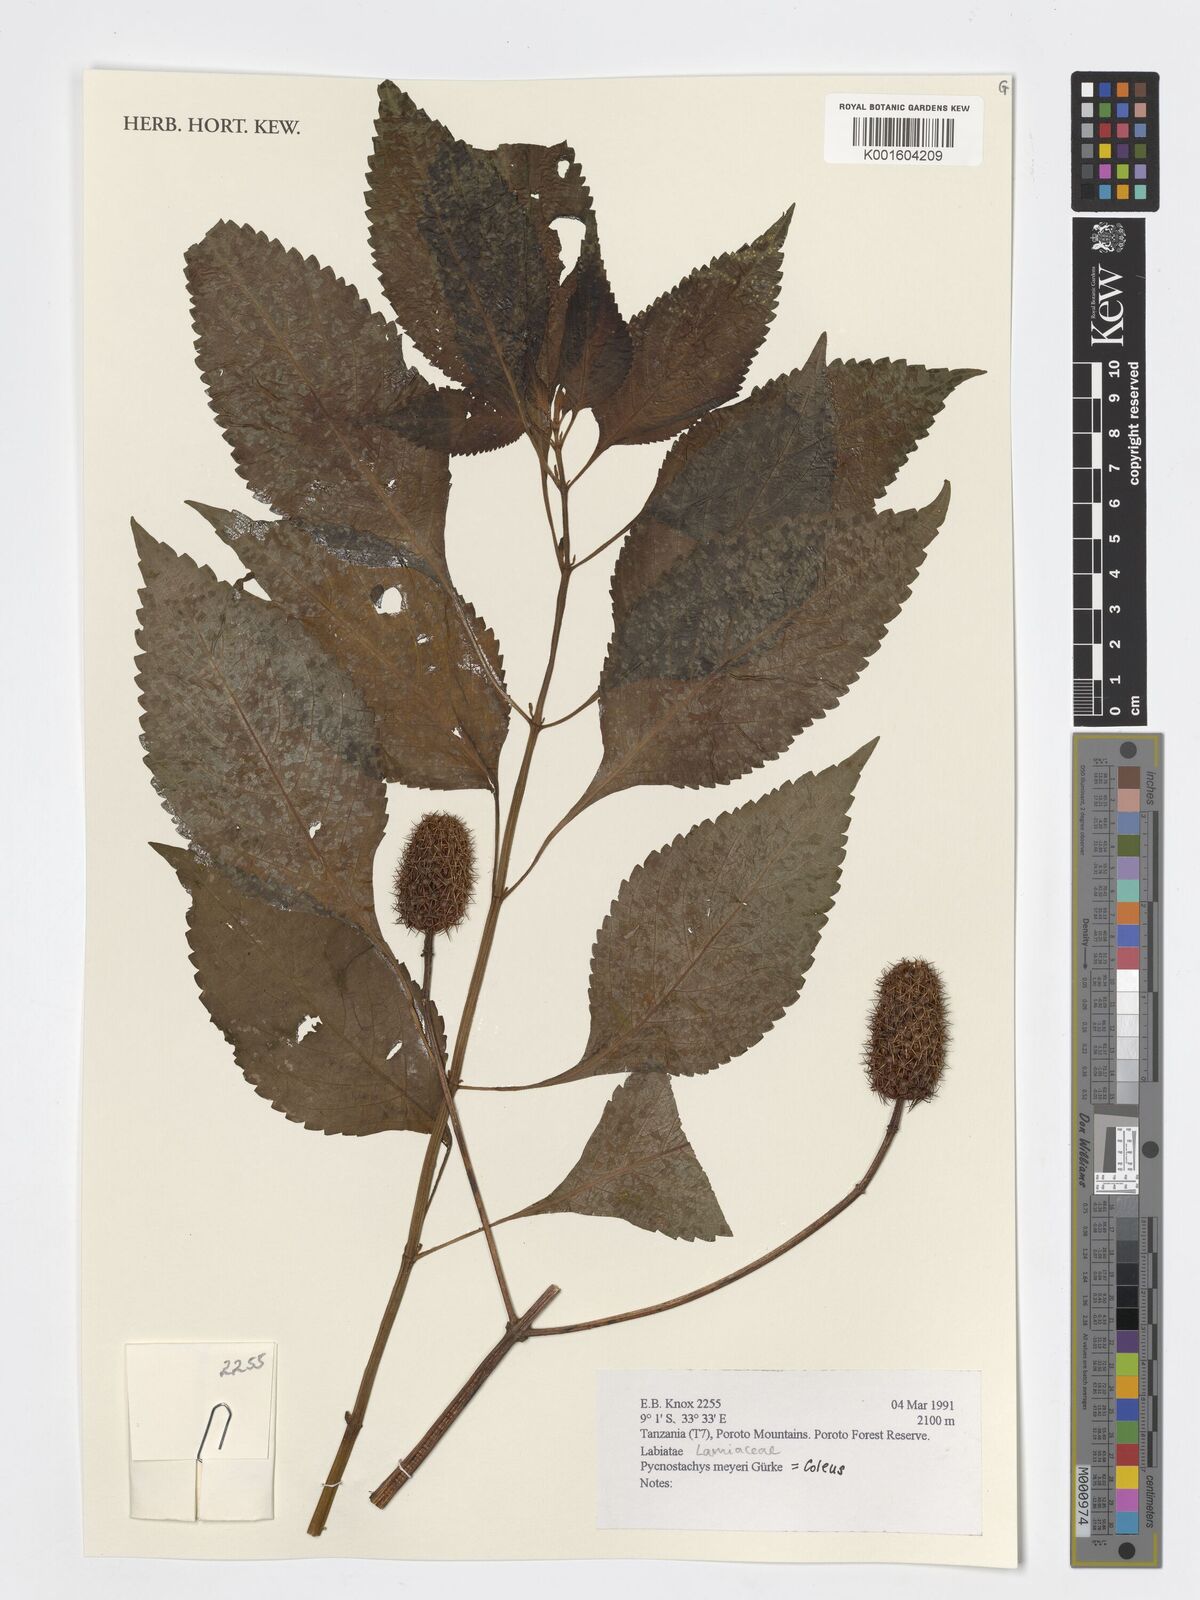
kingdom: Plantae
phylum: Tracheophyta
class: Magnoliopsida
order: Lamiales
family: Lamiaceae
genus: Coleus
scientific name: Coleus meyeri
